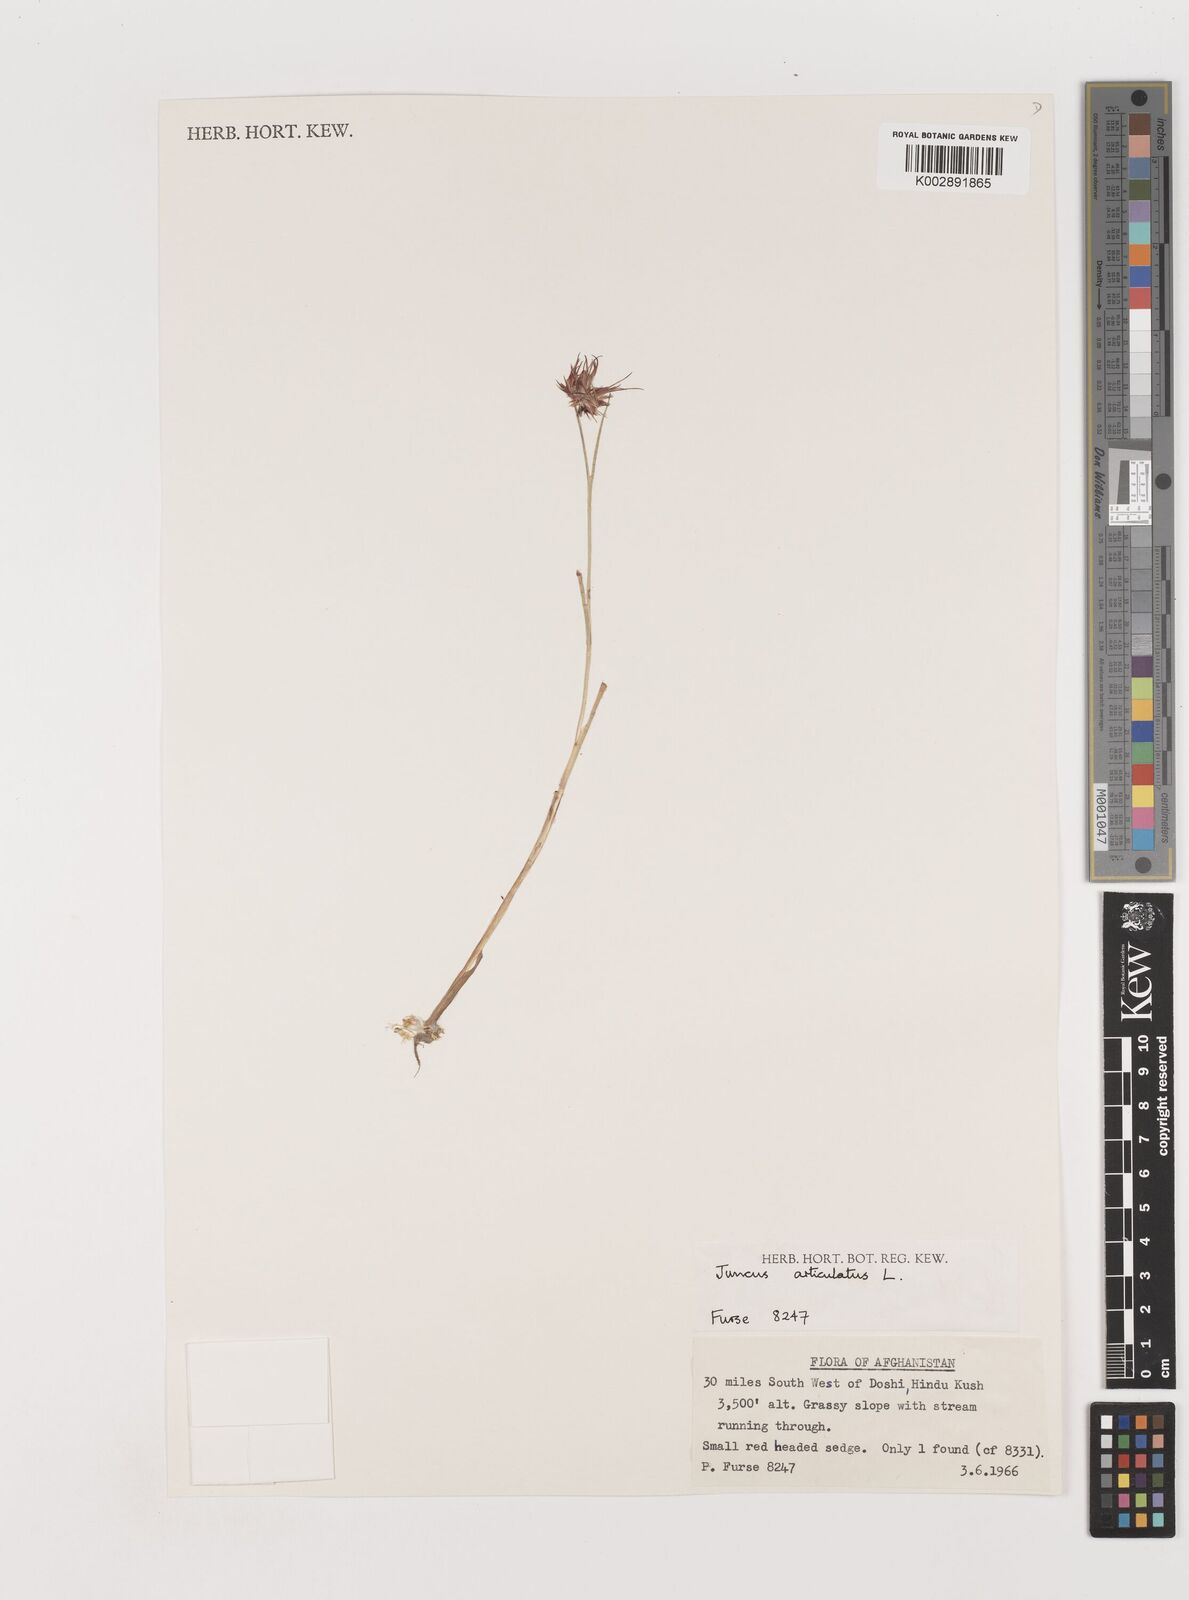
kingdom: Plantae
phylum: Tracheophyta
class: Liliopsida
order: Poales
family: Juncaceae
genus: Juncus
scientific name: Juncus articulatus
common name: Jointed rush
